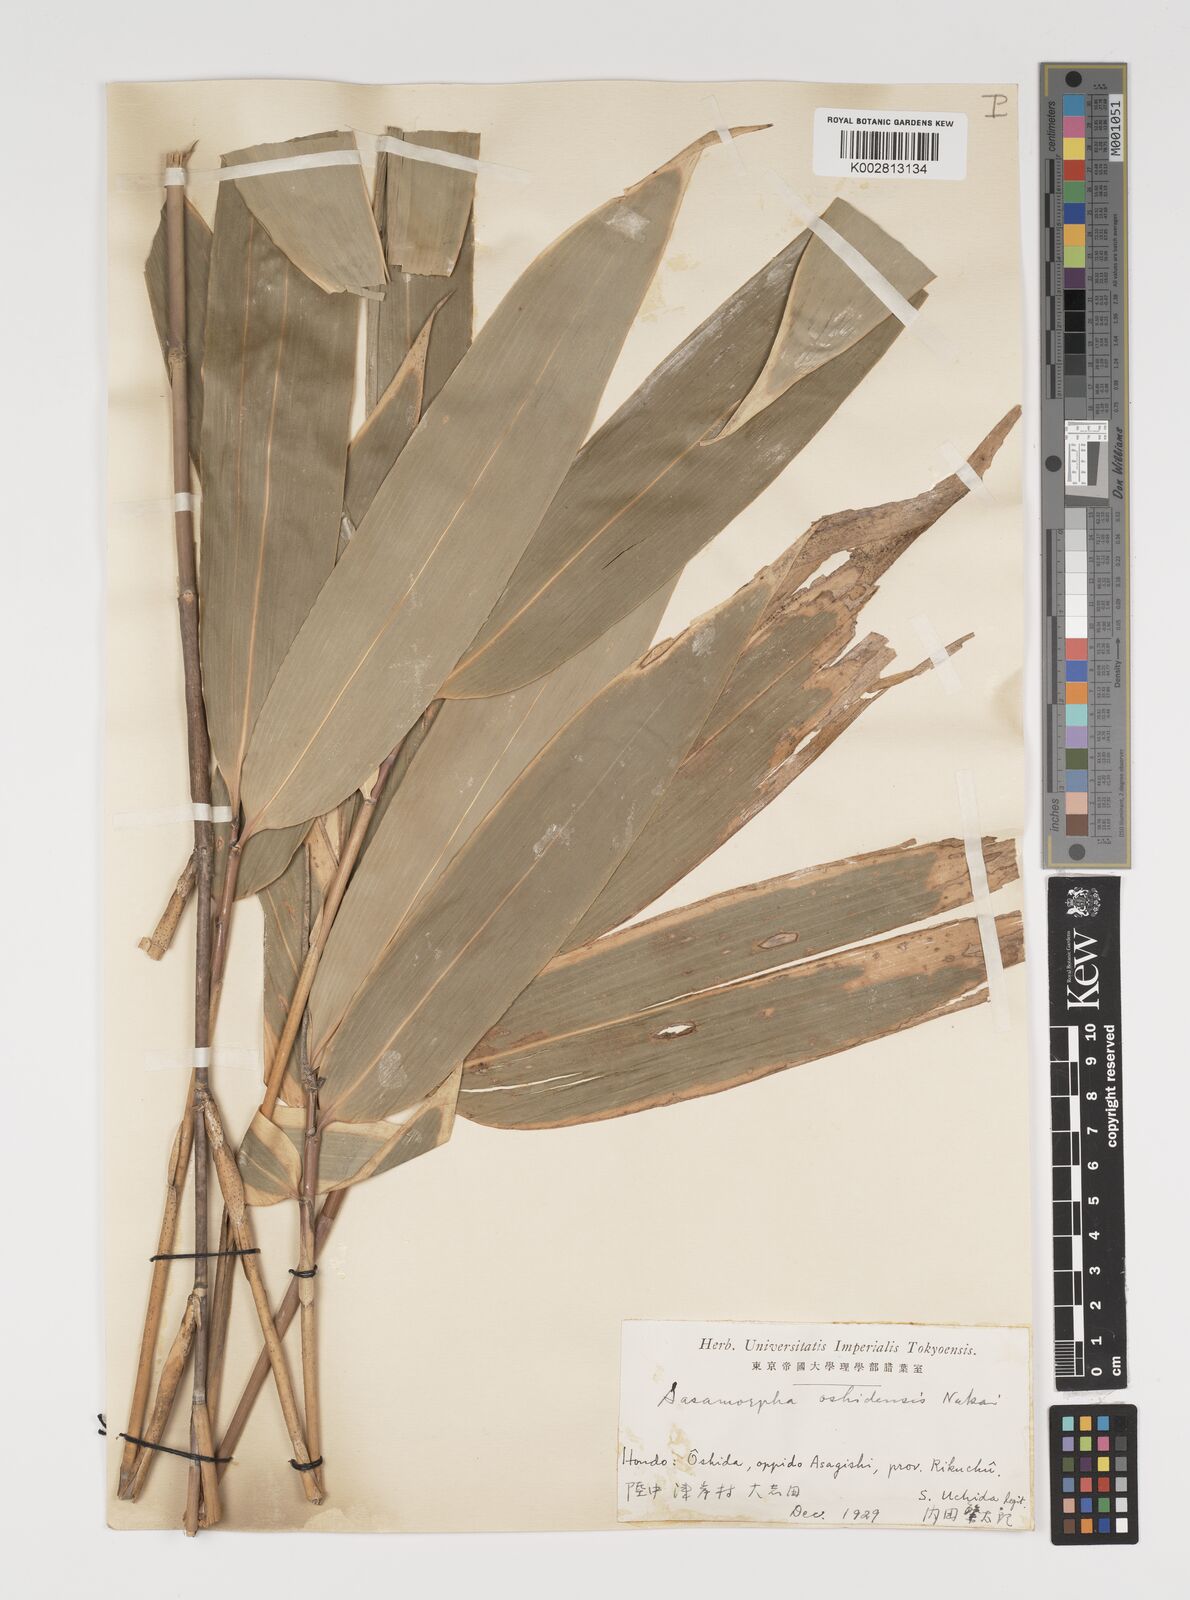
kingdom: Plantae
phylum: Tracheophyta
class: Liliopsida
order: Poales
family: Poaceae
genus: Sasamorpha
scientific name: Sasamorpha oshidensis
